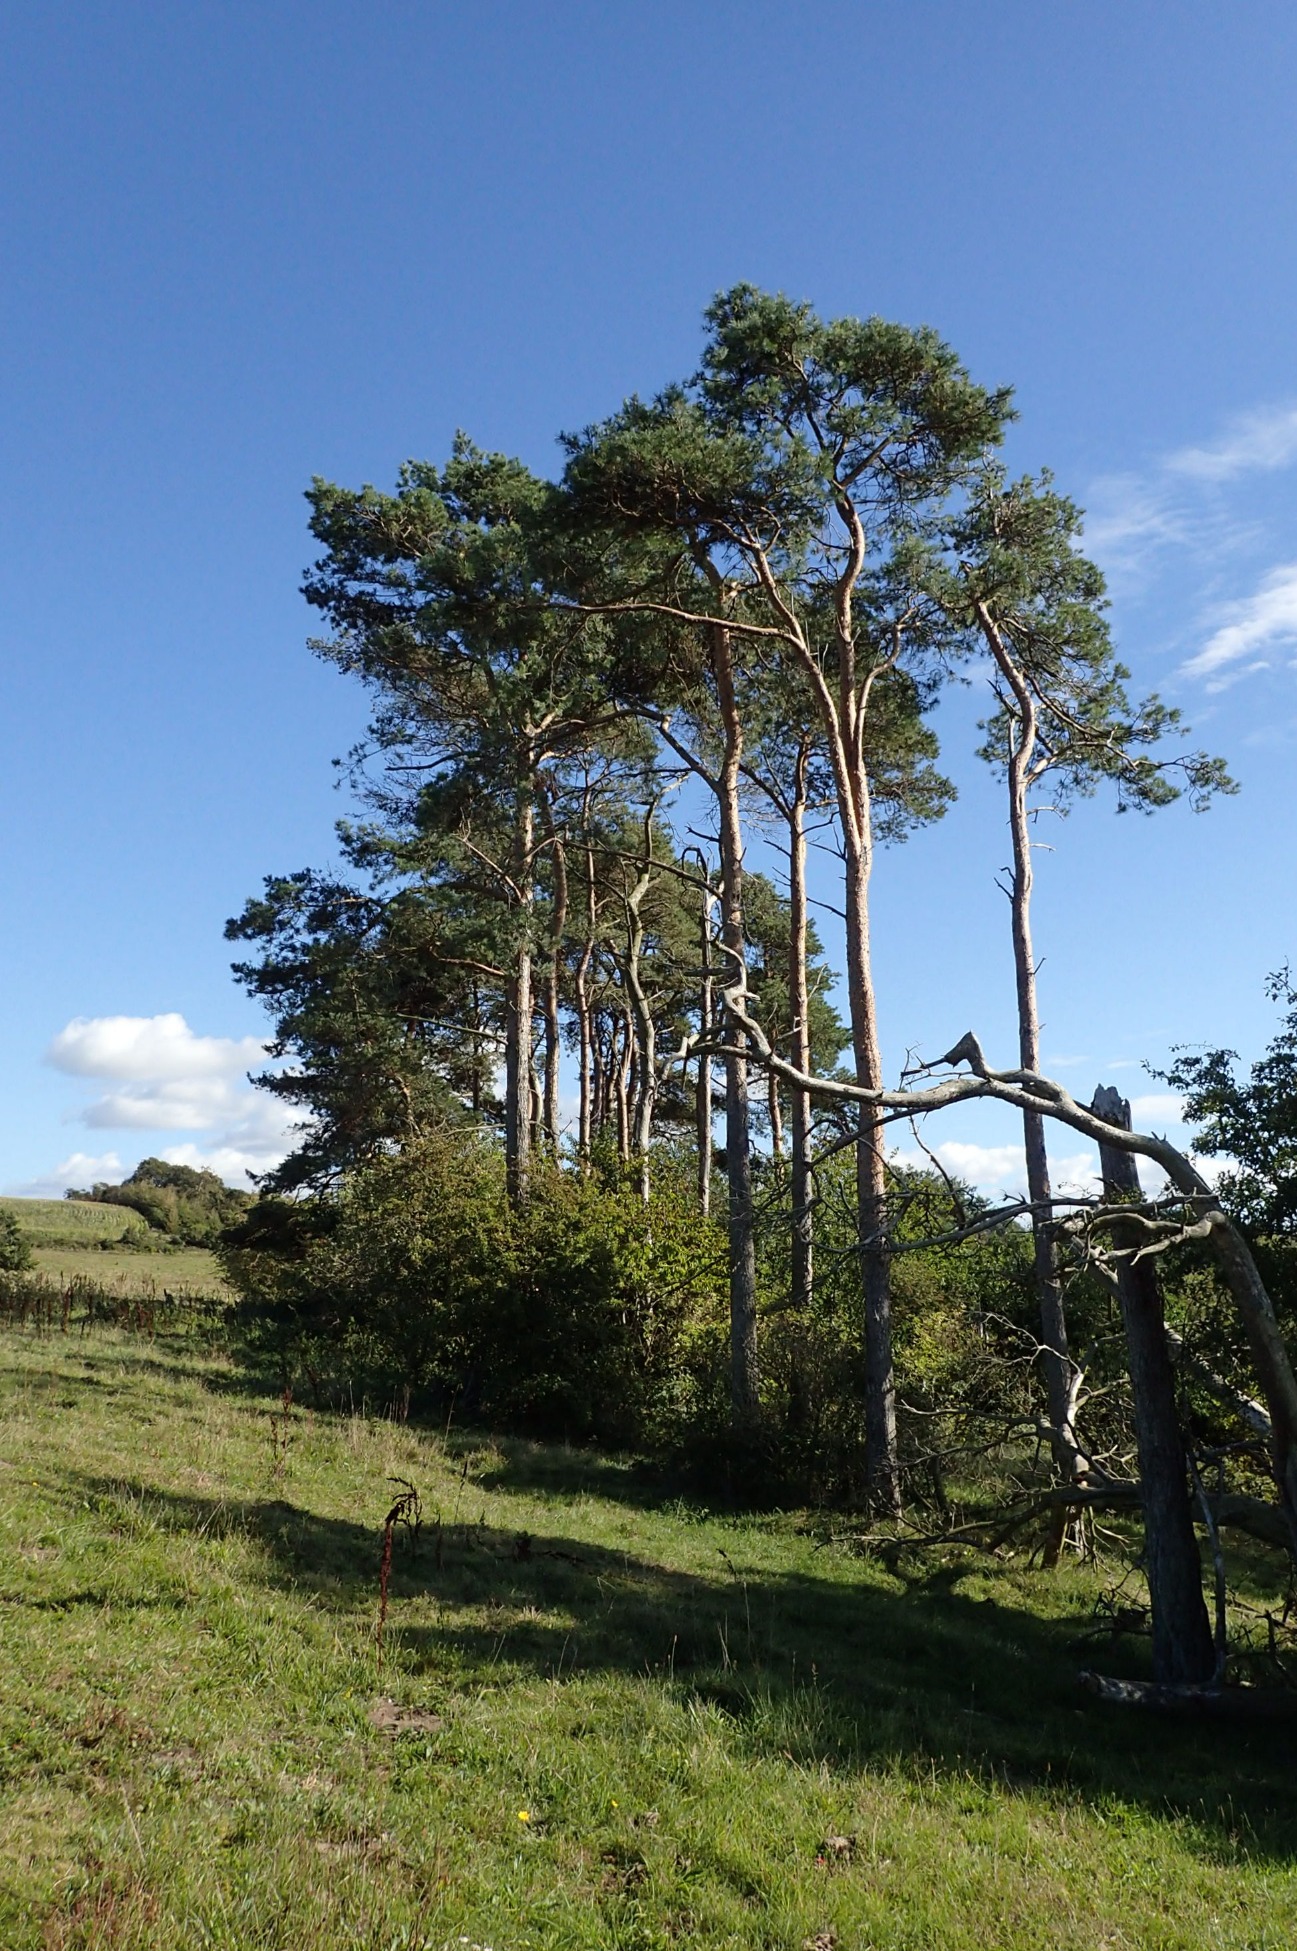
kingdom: Plantae
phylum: Tracheophyta
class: Pinopsida
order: Pinales
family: Pinaceae
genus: Pinus
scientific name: Pinus sylvestris
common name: Skov-fyr
